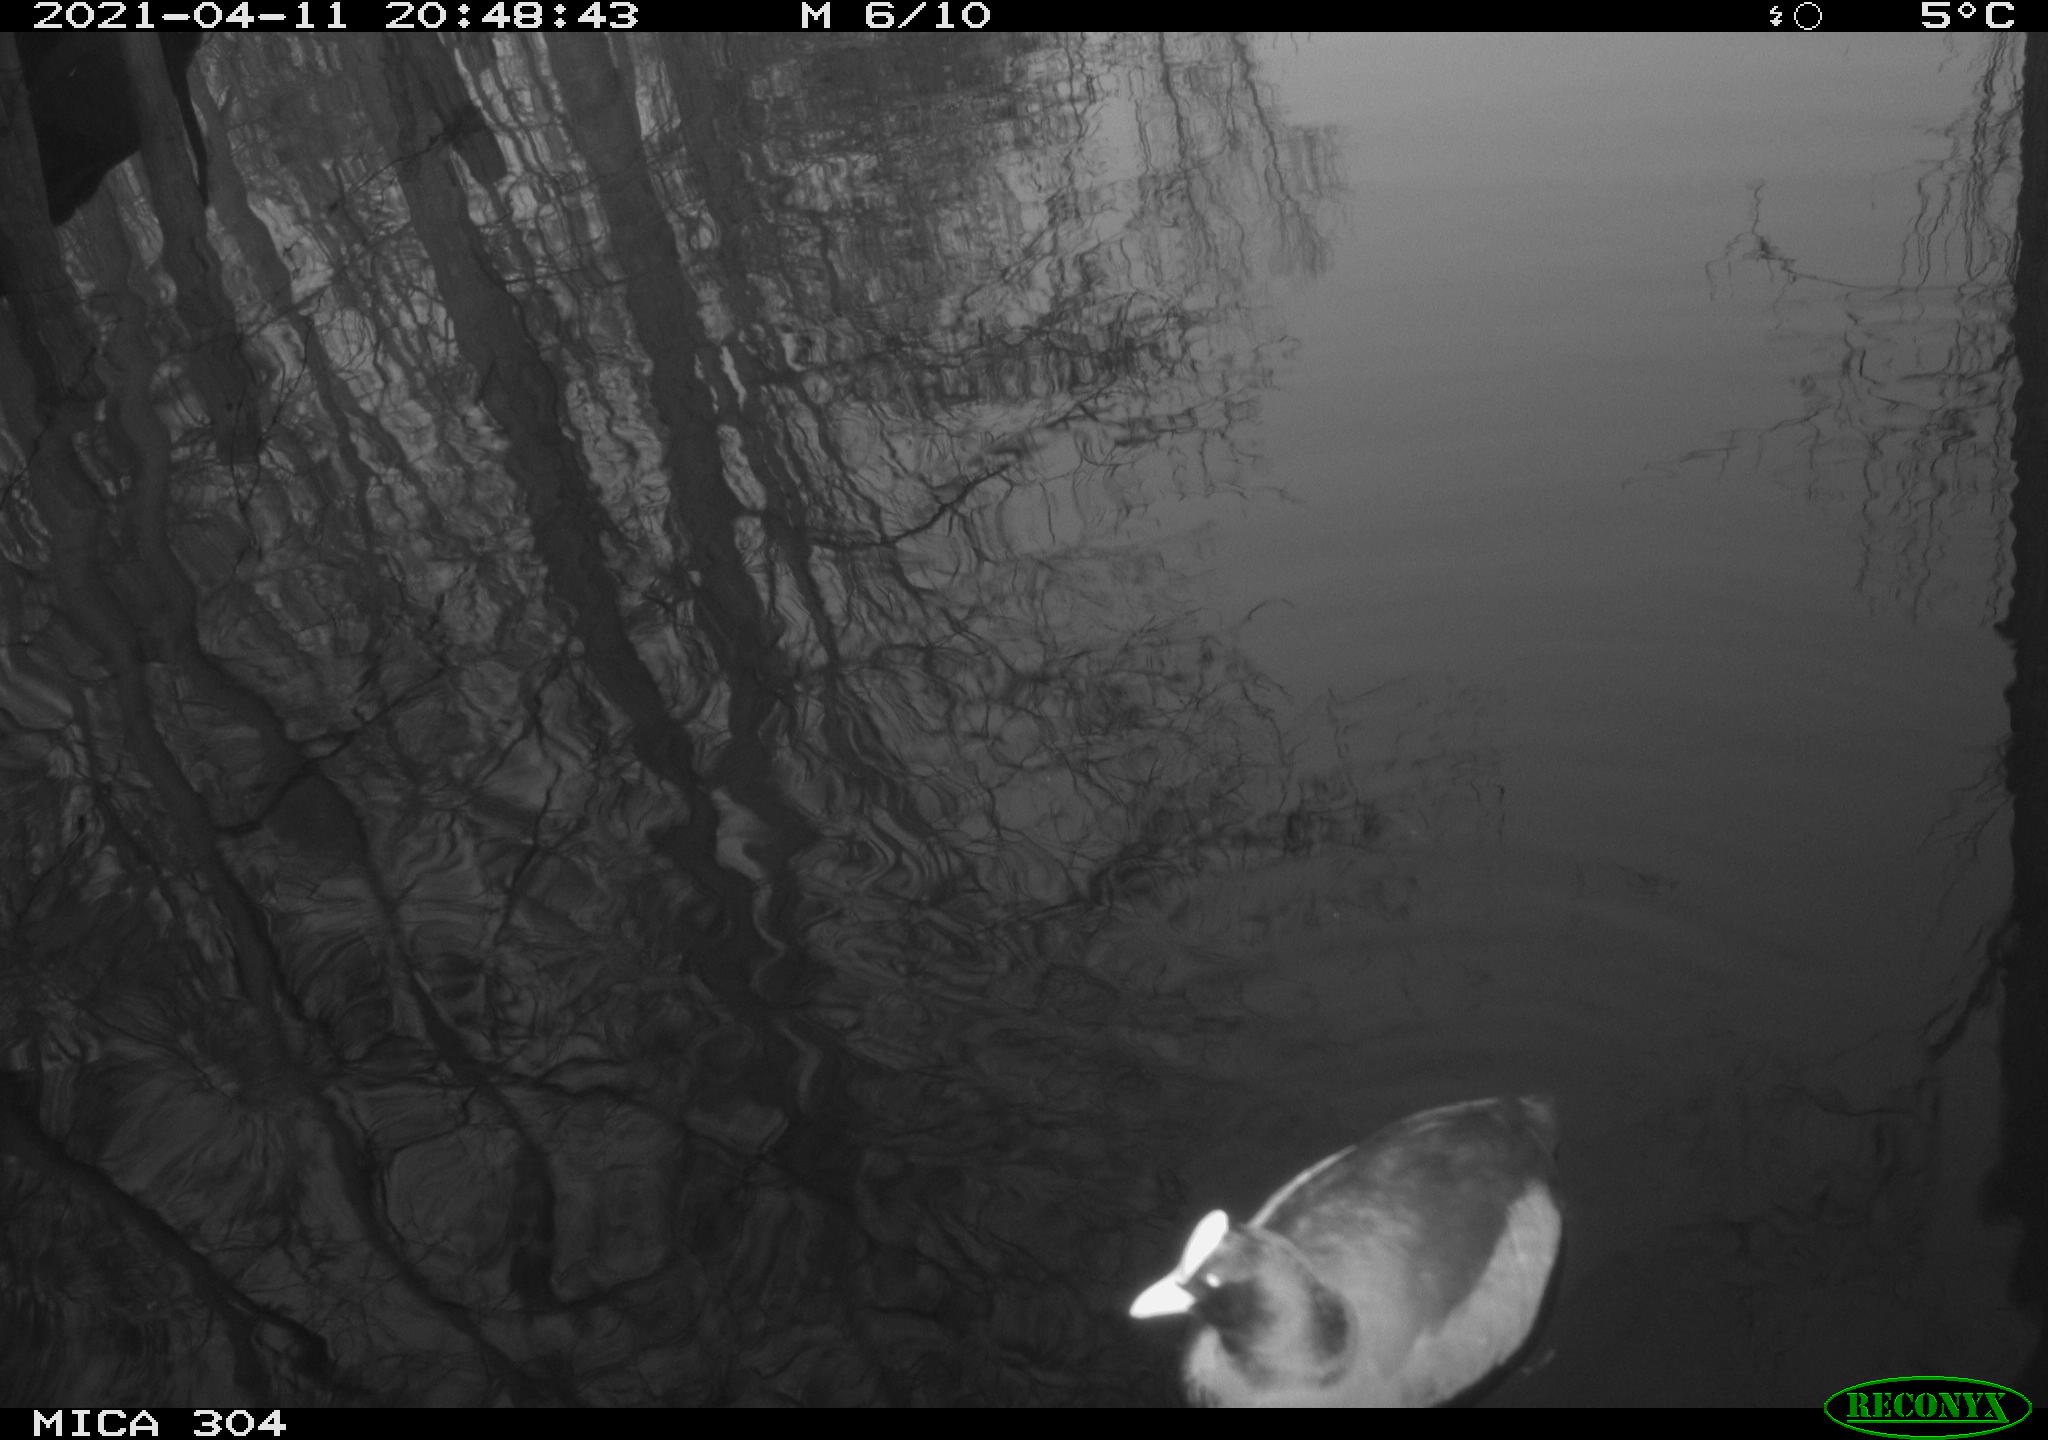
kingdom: Animalia
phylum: Chordata
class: Aves
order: Gruiformes
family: Rallidae
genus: Fulica
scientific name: Fulica atra
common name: Eurasian coot
